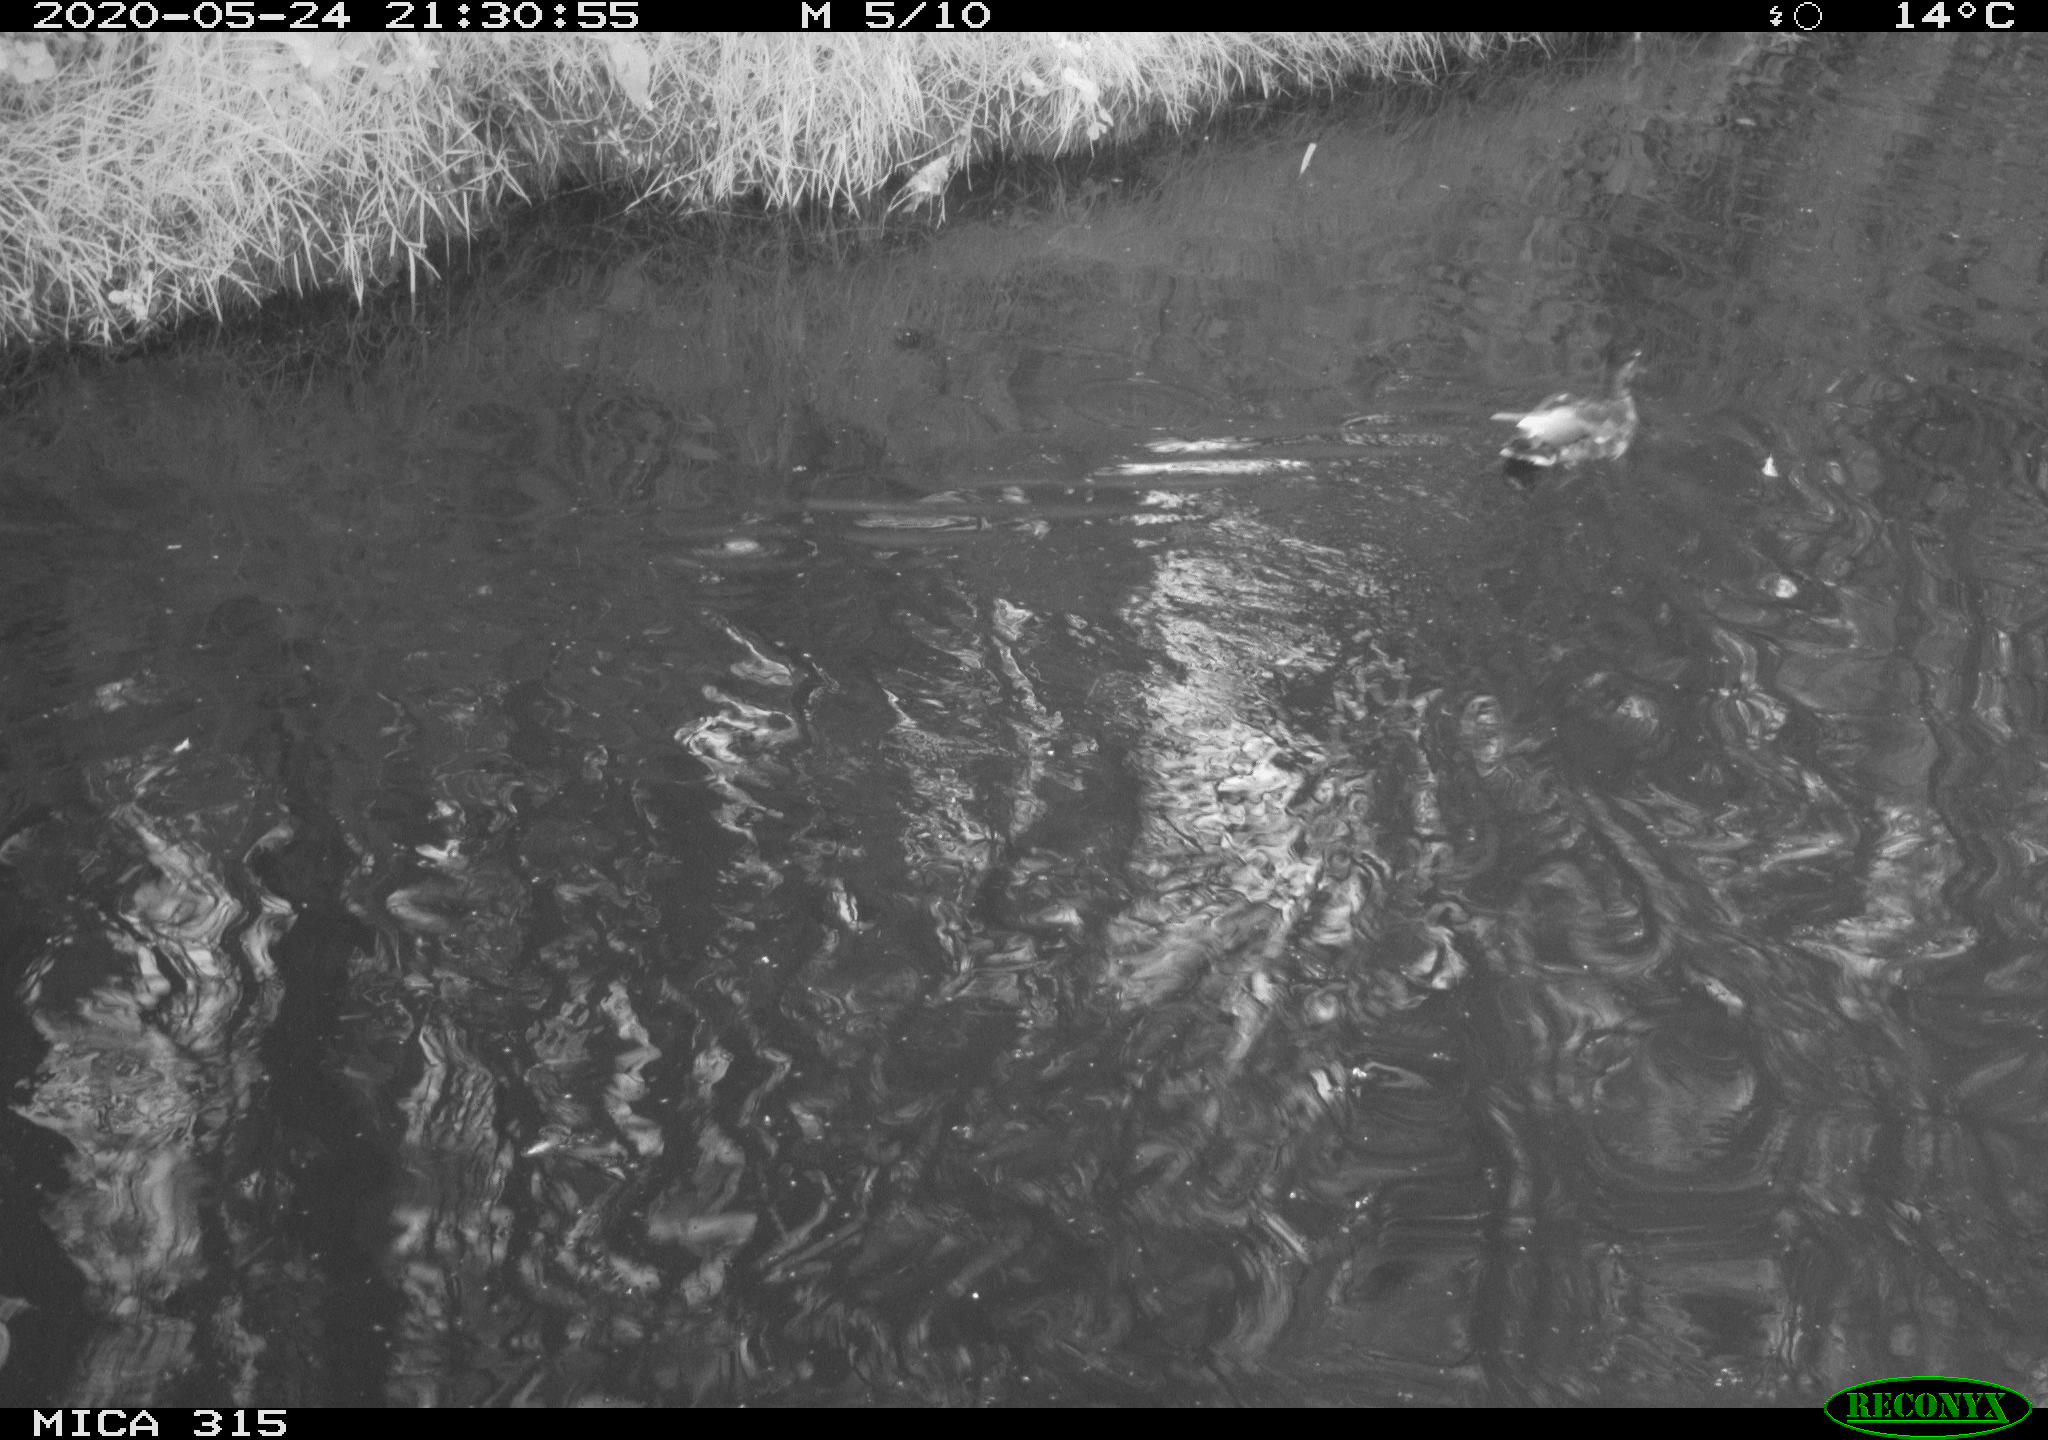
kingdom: Animalia
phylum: Chordata
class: Aves
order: Anseriformes
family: Anatidae
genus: Anas
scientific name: Anas platyrhynchos
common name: Mallard
